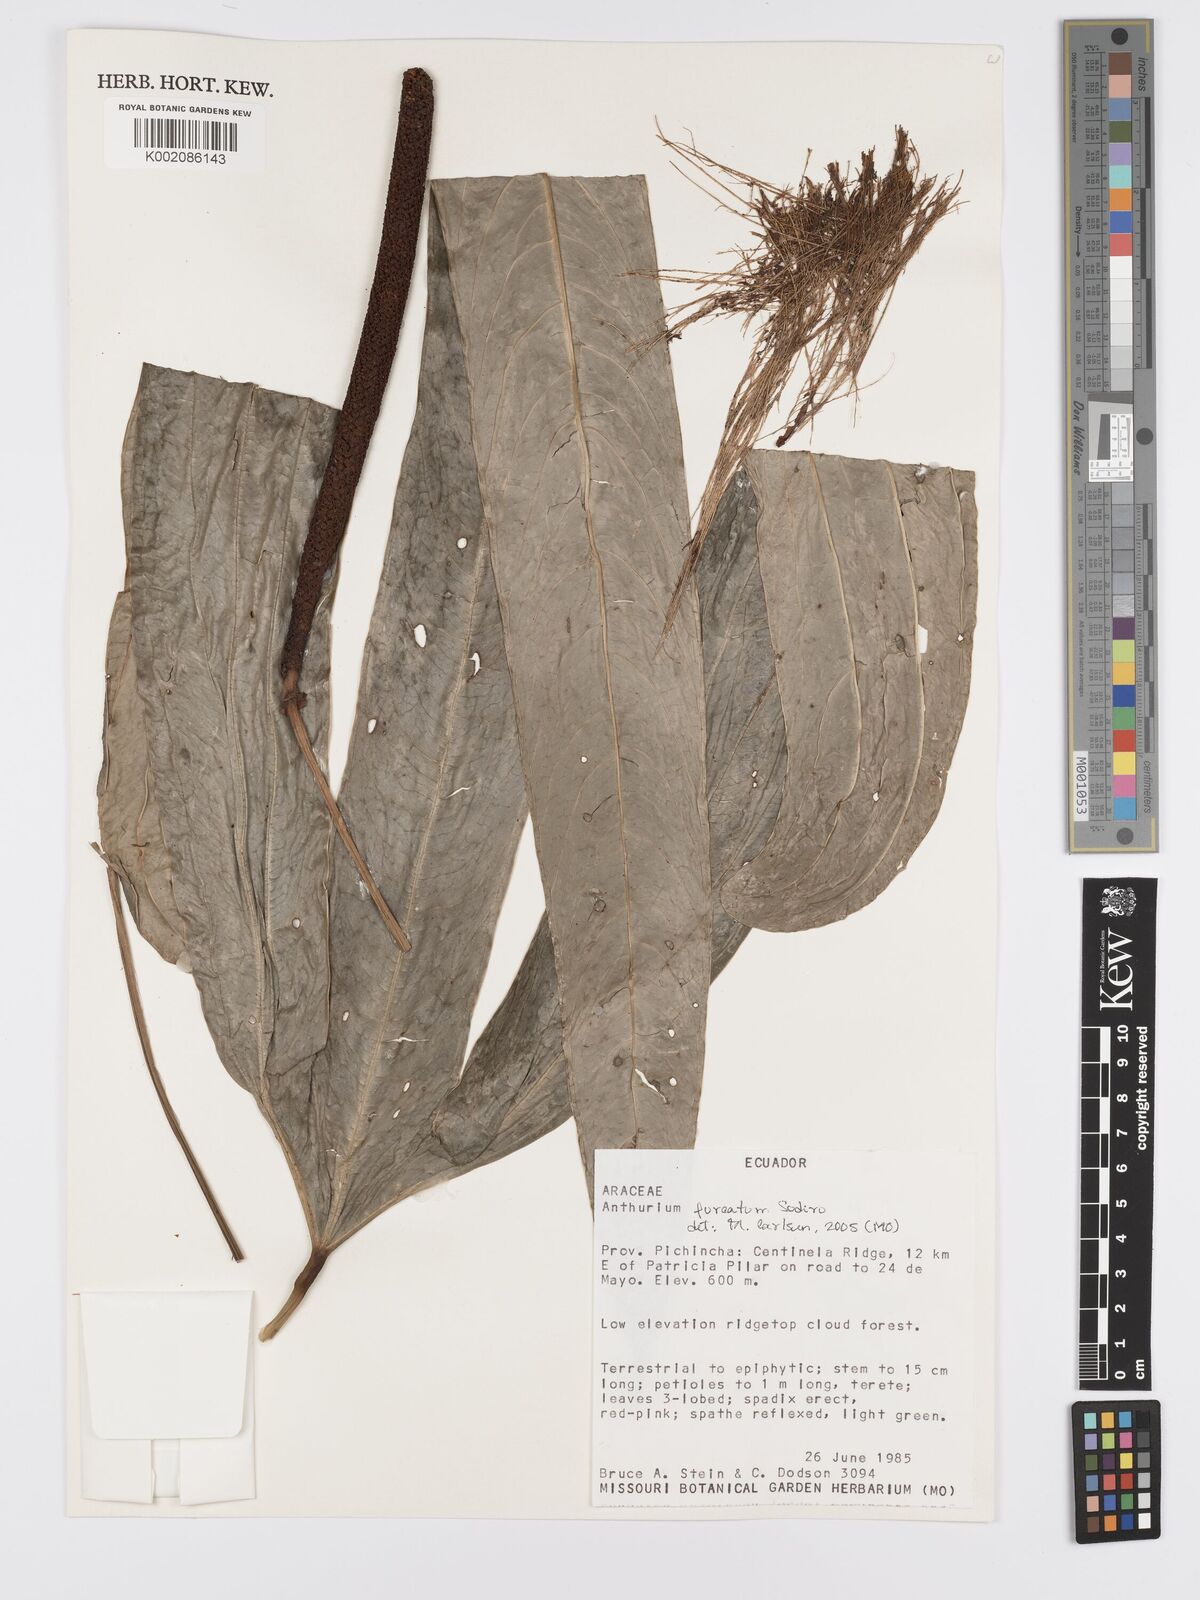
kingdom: Plantae
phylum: Tracheophyta
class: Liliopsida
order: Alismatales
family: Araceae
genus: Anthurium
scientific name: Anthurium furcatum
